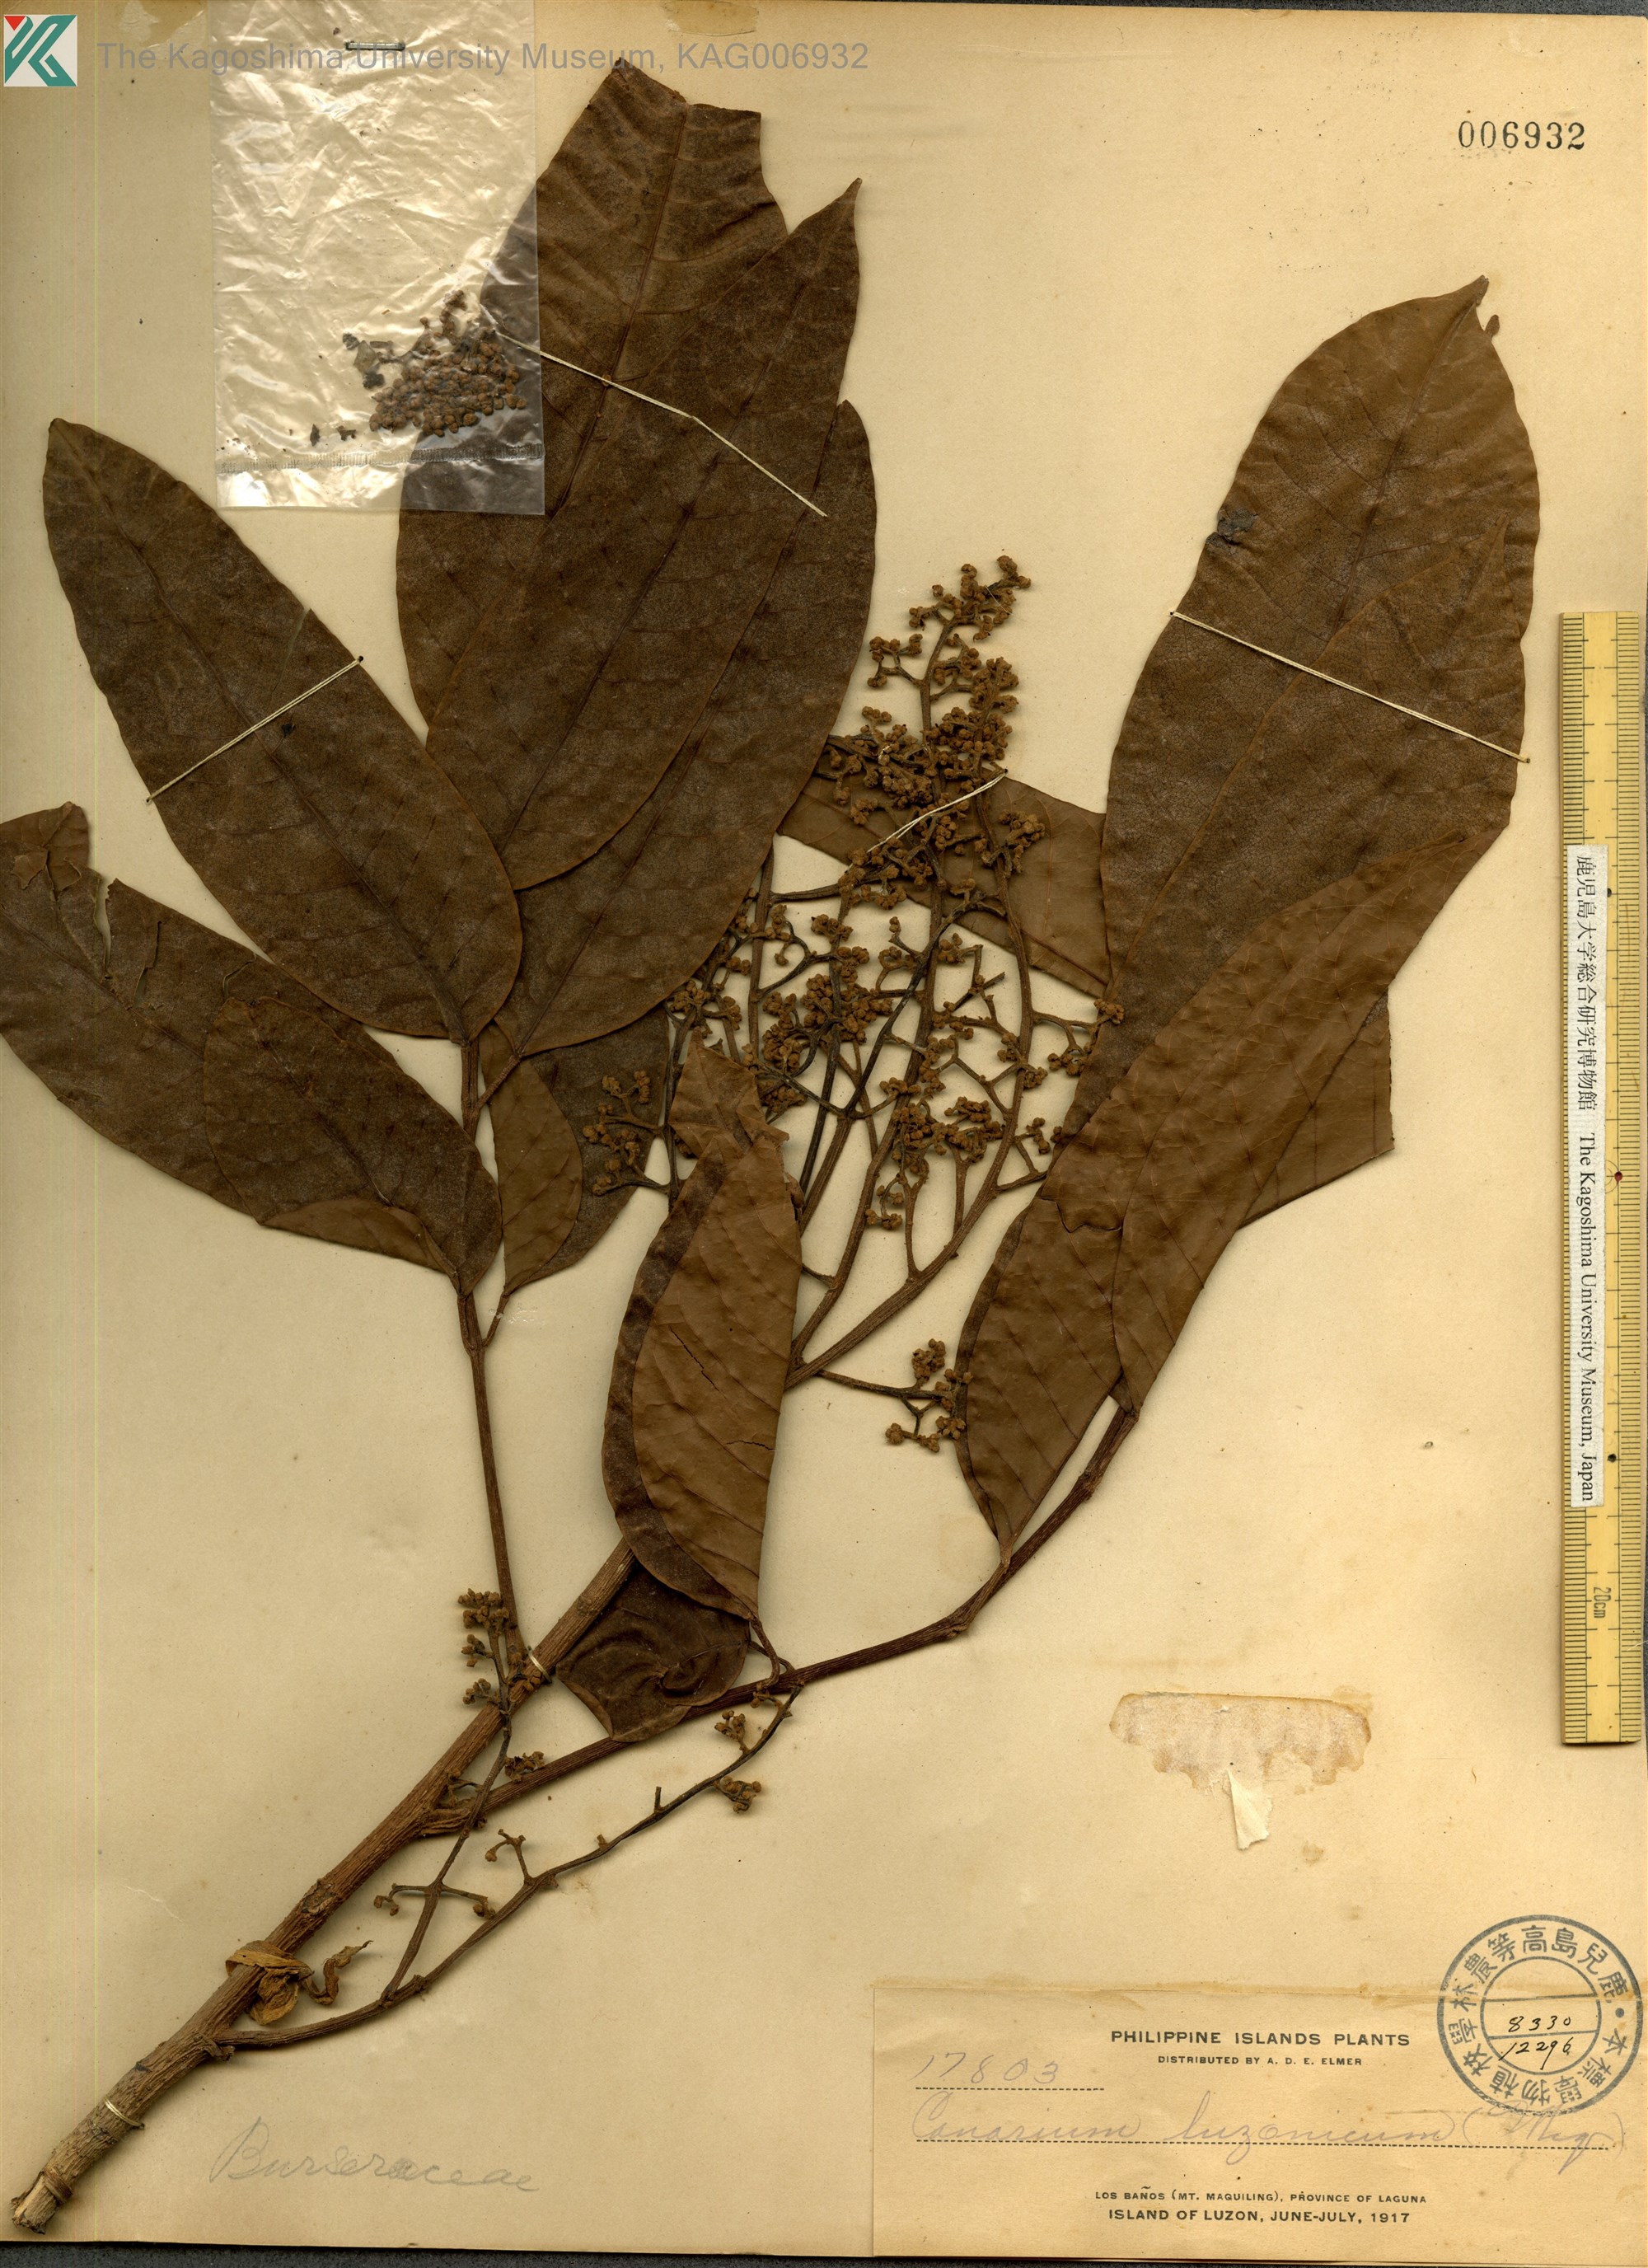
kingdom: Plantae
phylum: Tracheophyta
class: Magnoliopsida
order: Sapindales
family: Burseraceae
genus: Canarium
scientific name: Canarium luzonicum
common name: Manila elemi-tree
